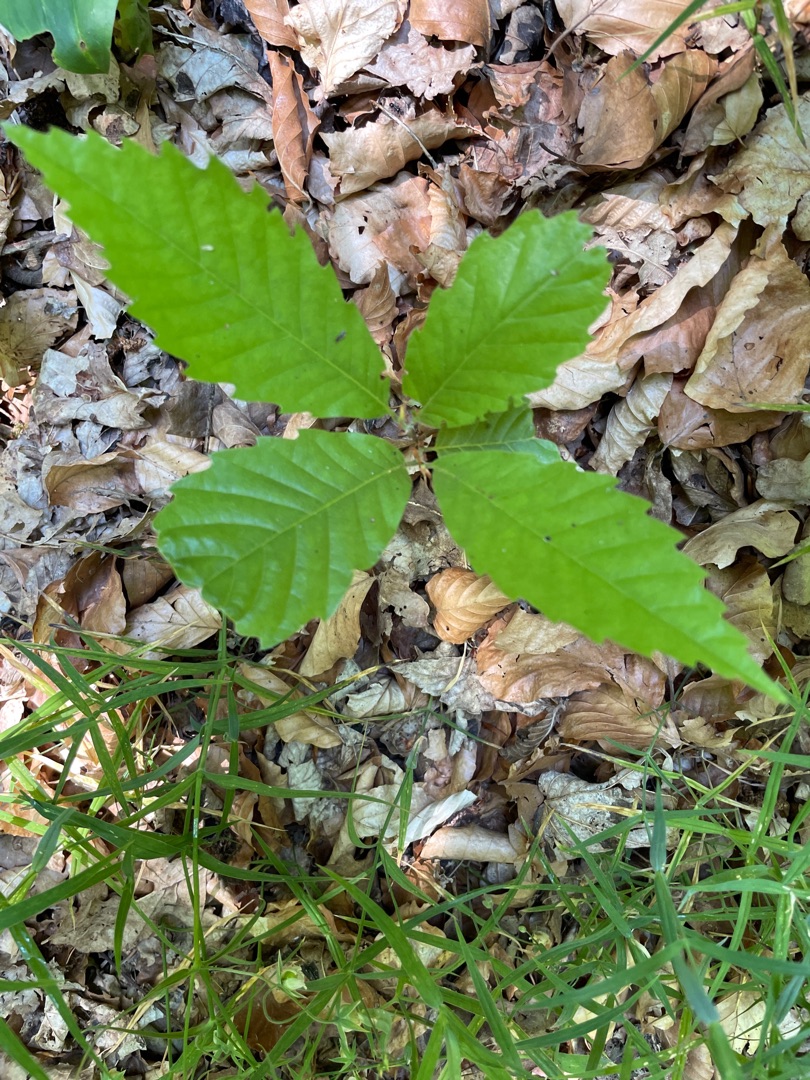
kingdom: Plantae
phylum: Tracheophyta
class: Magnoliopsida
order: Fagales
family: Fagaceae
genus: Castanea
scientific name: Castanea sativa
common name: Ægte kastanie
